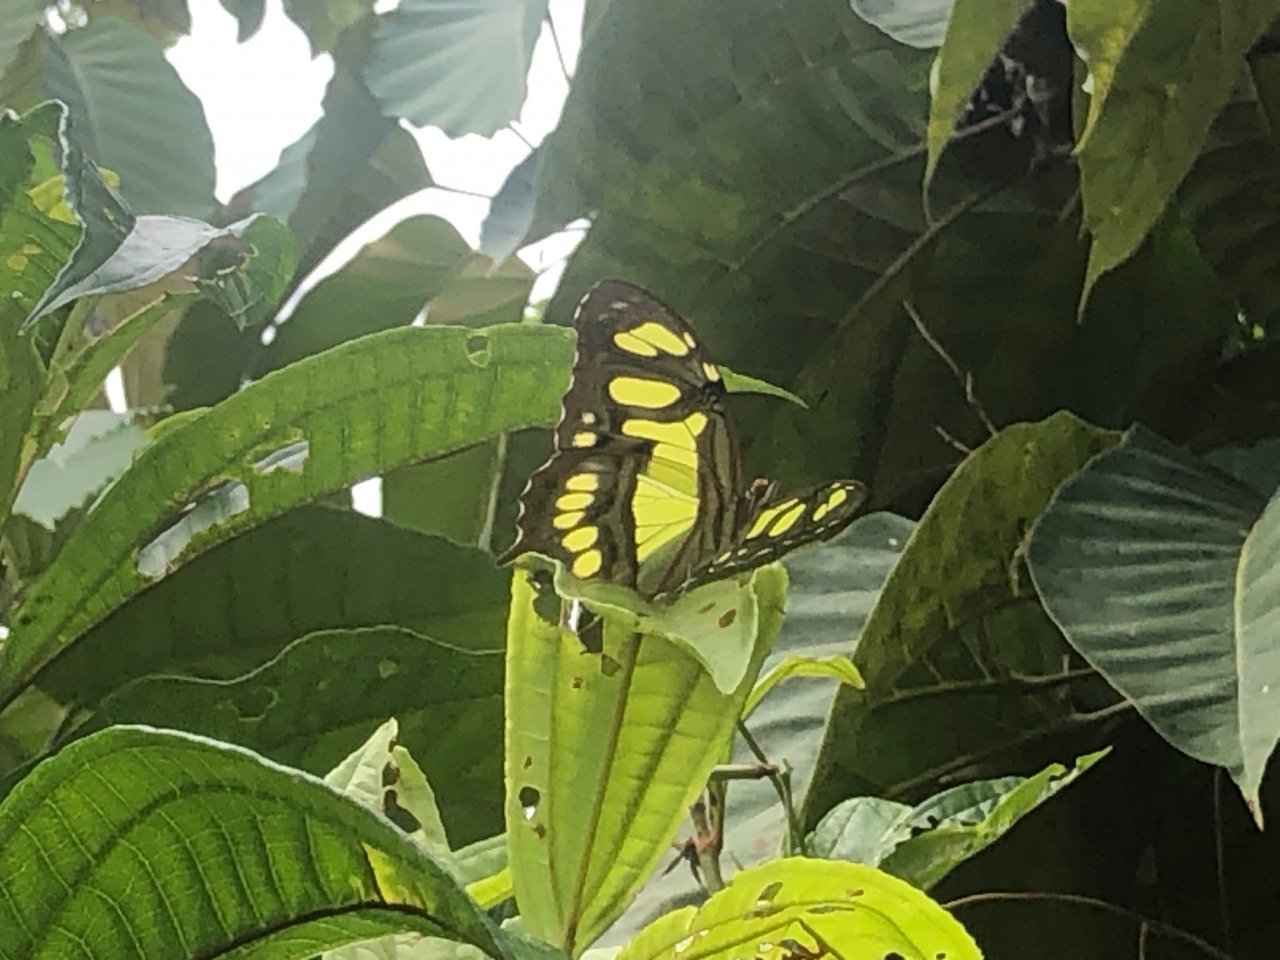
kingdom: Animalia
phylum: Arthropoda
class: Insecta
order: Lepidoptera
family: Nymphalidae
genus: Siproeta
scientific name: Siproeta stelenes
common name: Malachite
